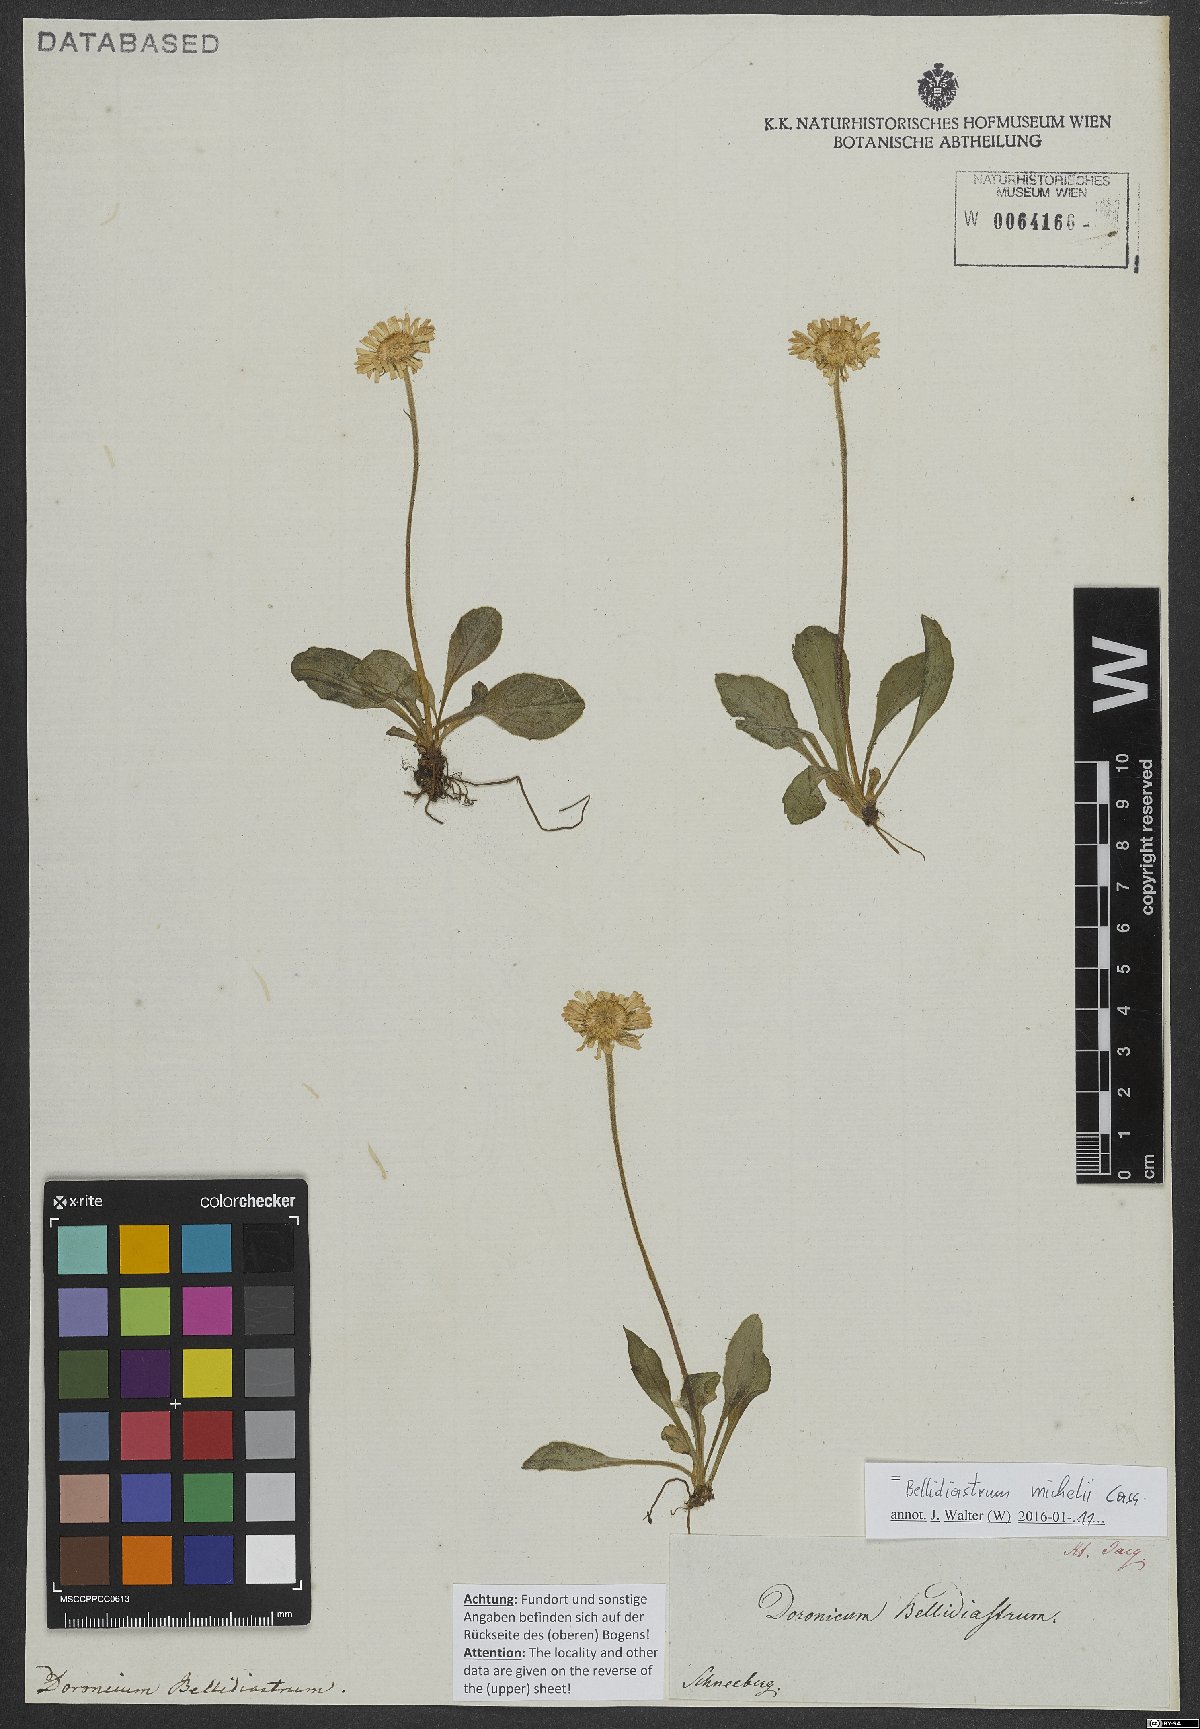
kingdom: Plantae
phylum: Tracheophyta
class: Magnoliopsida
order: Asterales
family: Asteraceae
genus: Bellidiastrum
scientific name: Bellidiastrum michelii
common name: Daisy-star aster
